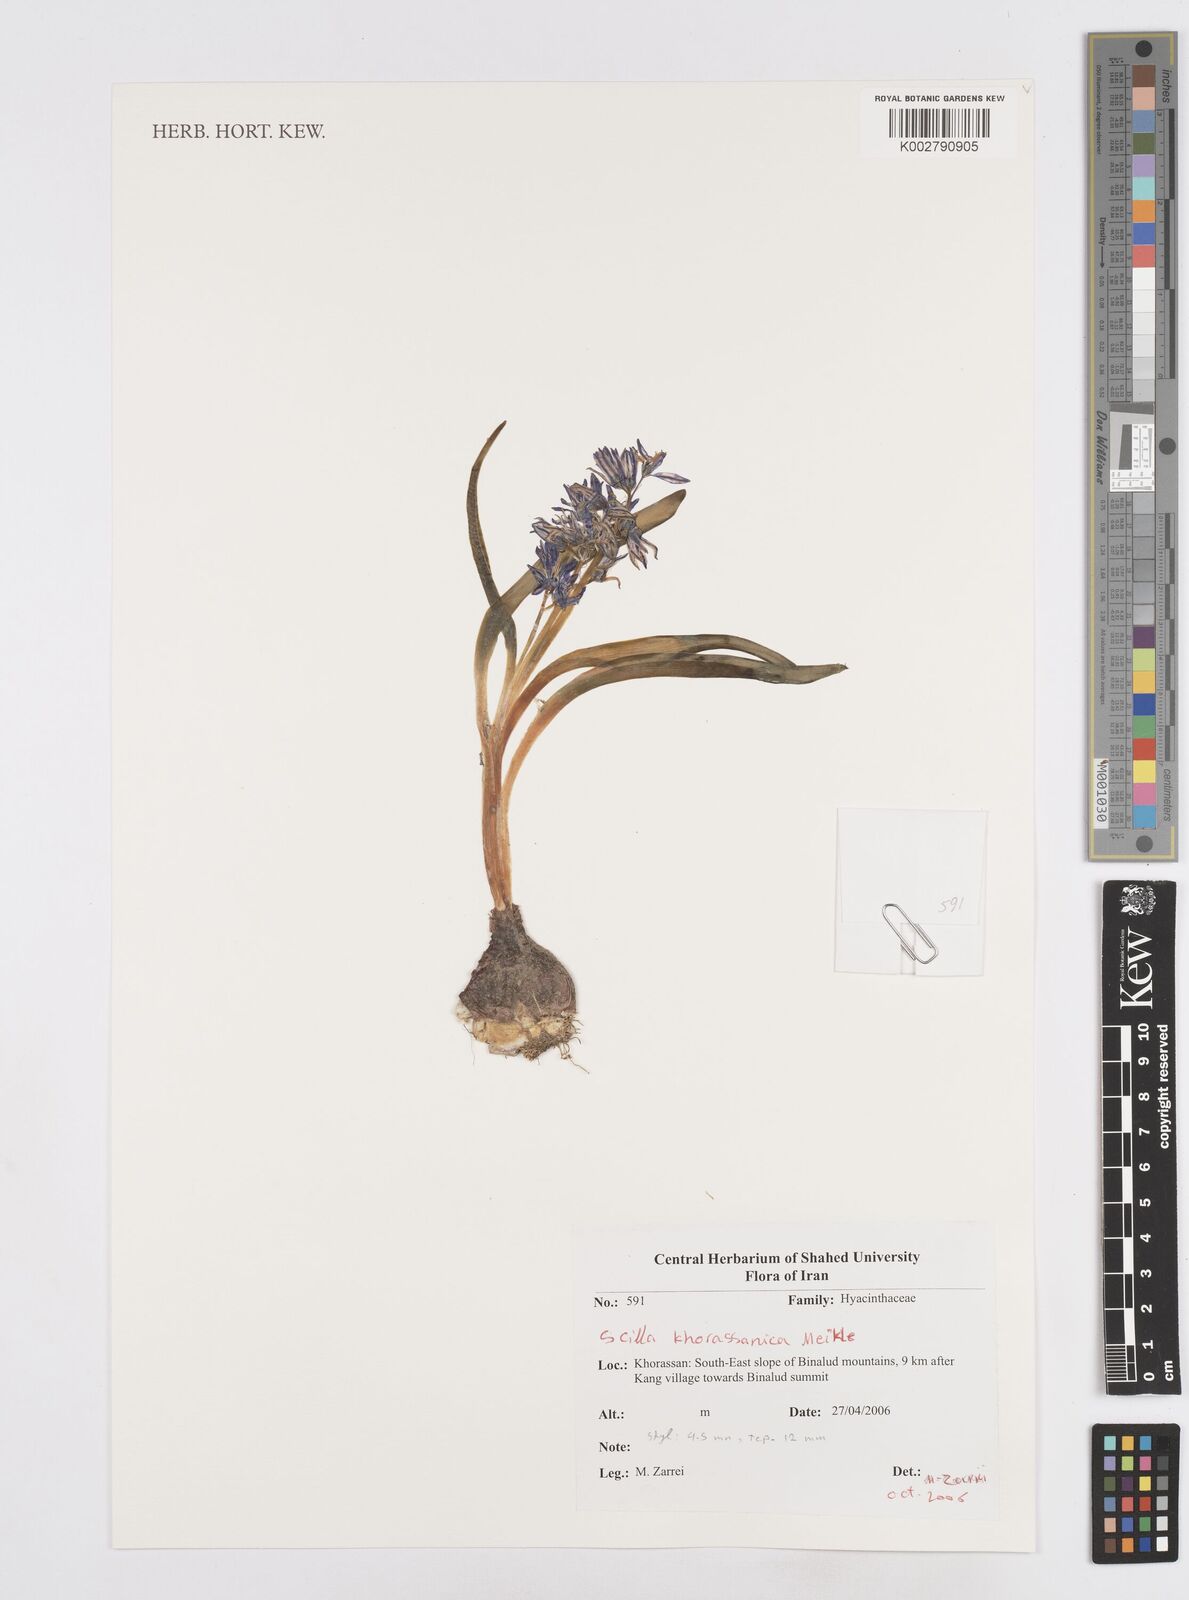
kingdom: Plantae
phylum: Tracheophyta
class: Liliopsida
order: Asparagales
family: Asparagaceae
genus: Fessia
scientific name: Fessia khorassanica
